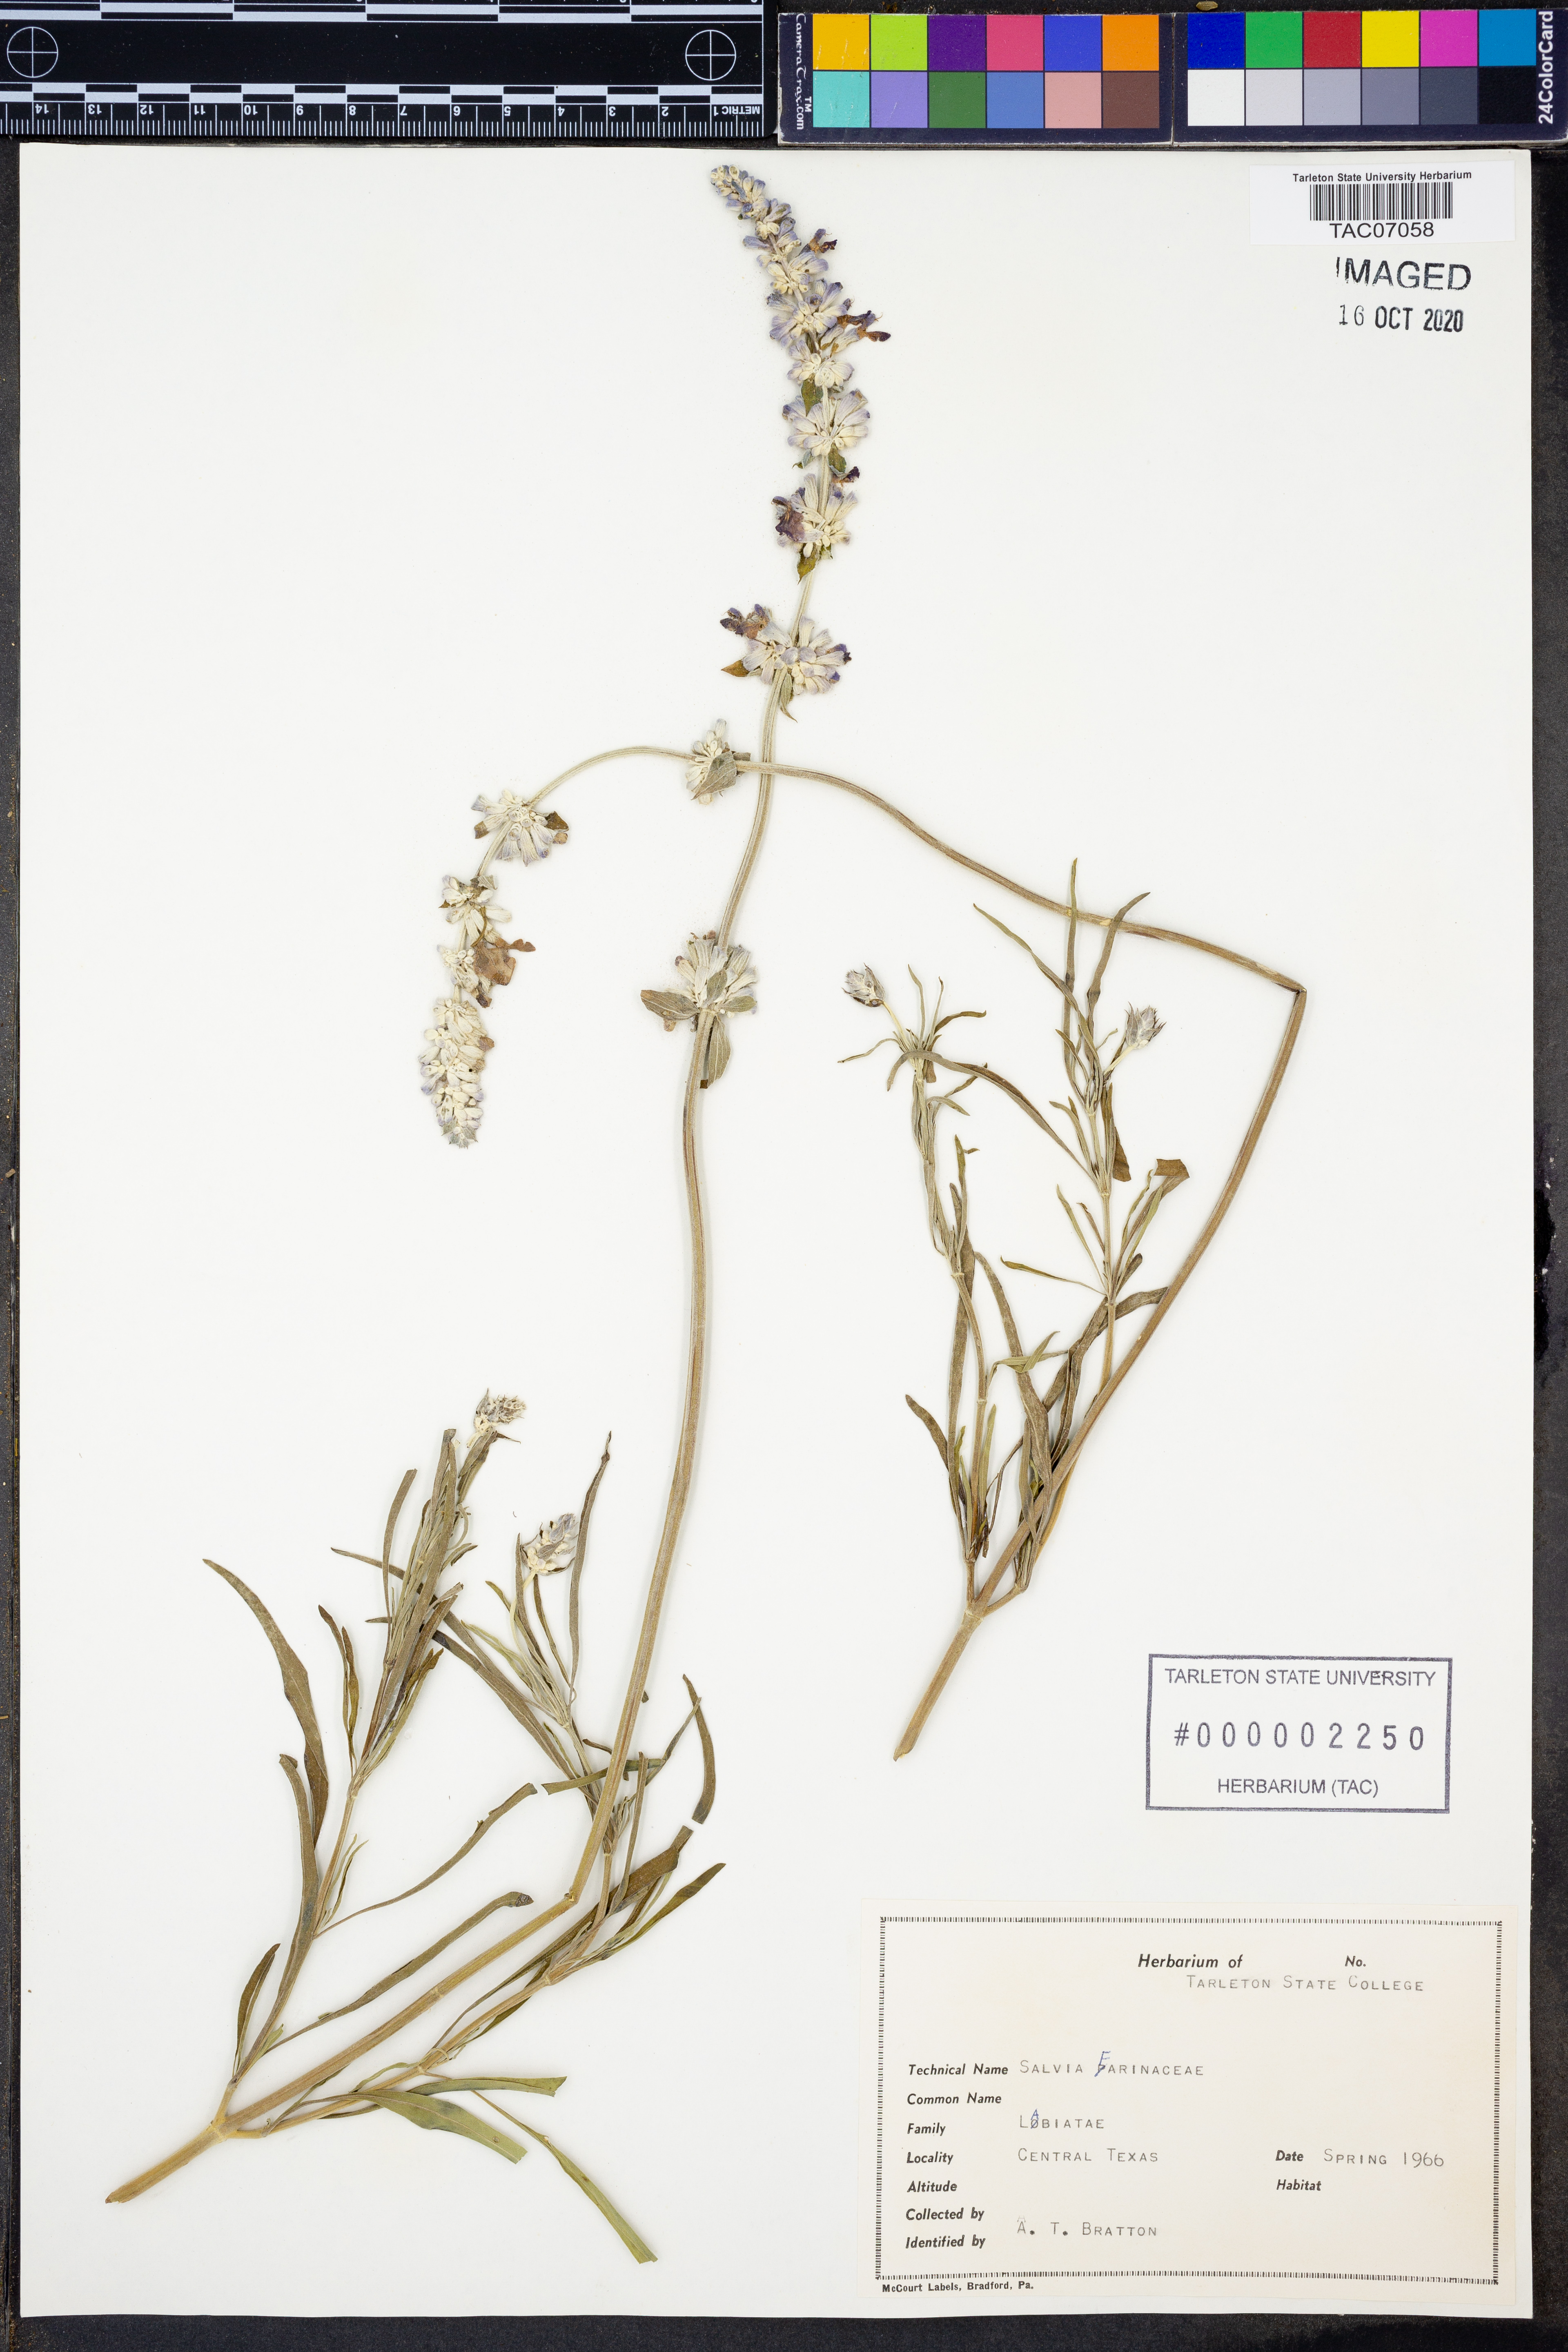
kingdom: Plantae
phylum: Tracheophyta
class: Magnoliopsida
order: Lamiales
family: Lamiaceae
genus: Salvia
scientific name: Salvia farinacea
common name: Mealy sage
